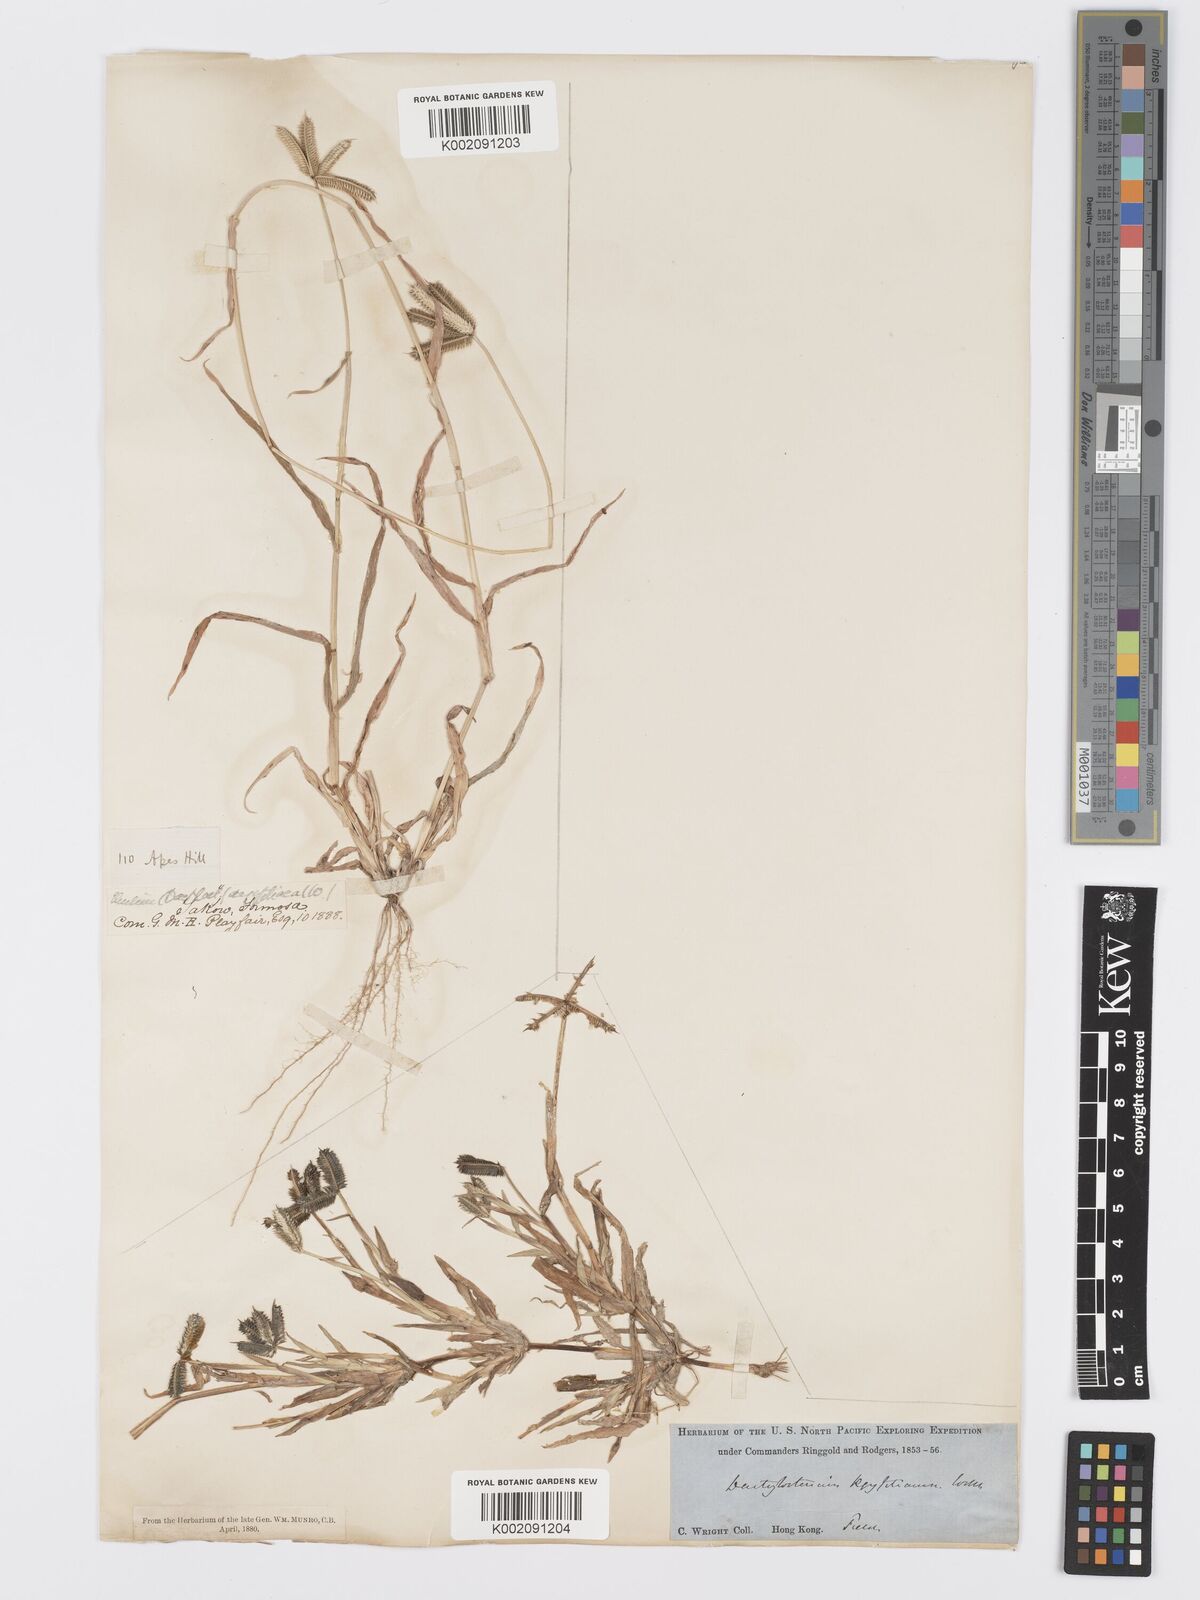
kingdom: Plantae
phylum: Tracheophyta
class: Liliopsida
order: Poales
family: Poaceae
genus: Dactyloctenium
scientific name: Dactyloctenium aegyptium
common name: Egyptian grass
